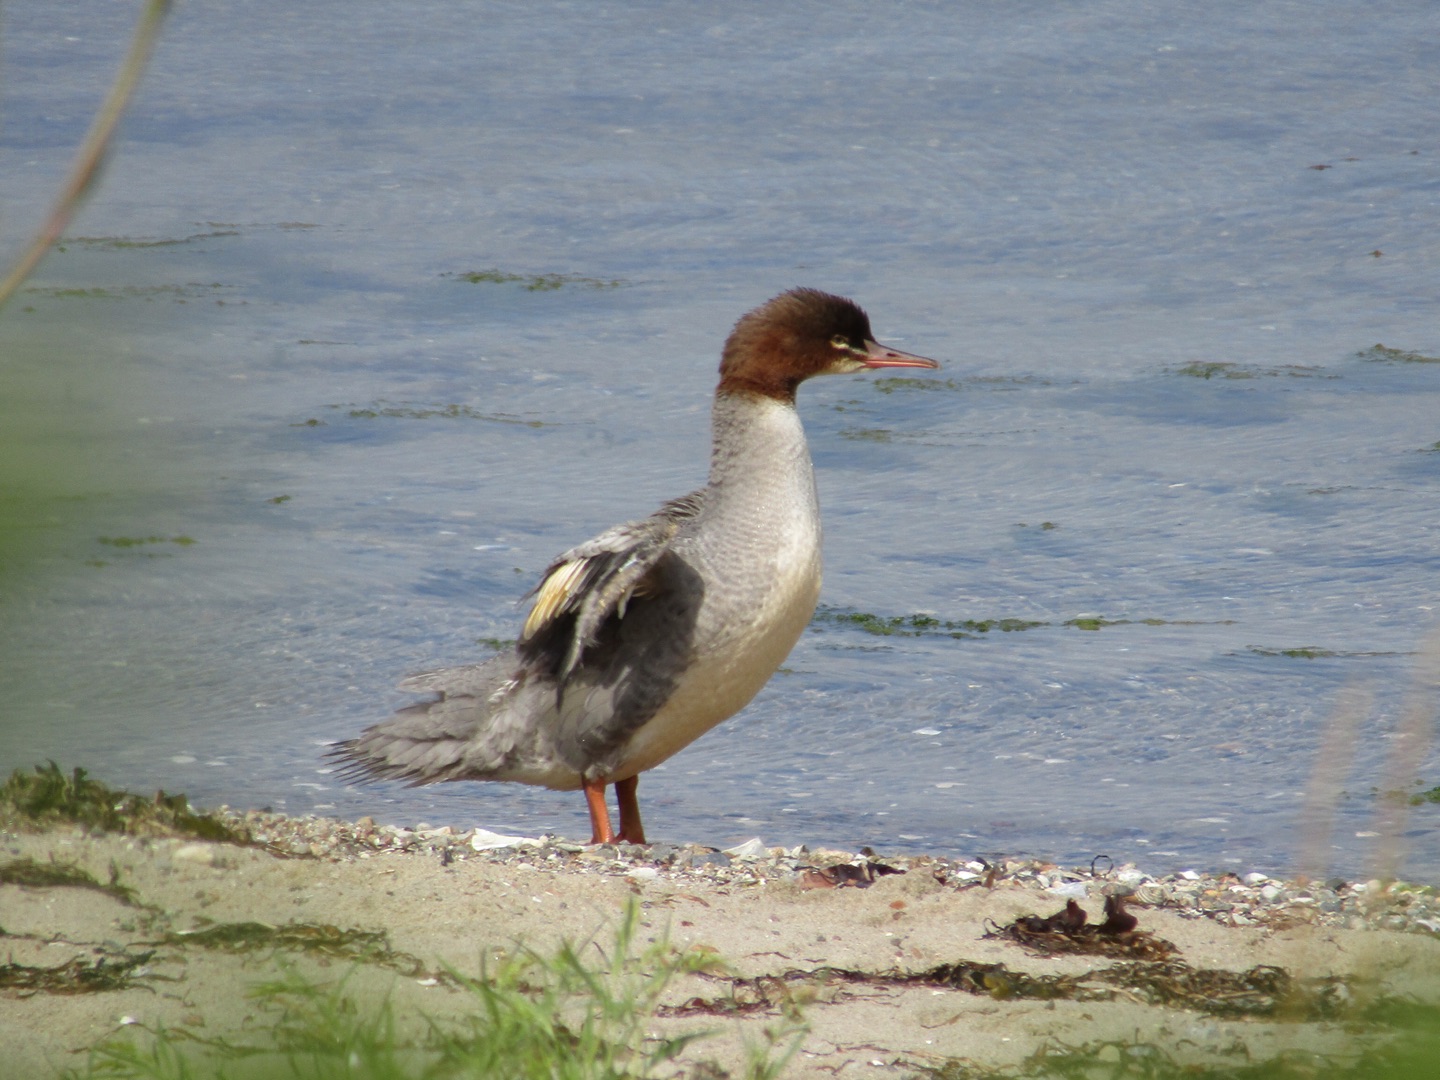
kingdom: Animalia
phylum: Chordata
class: Aves
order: Anseriformes
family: Anatidae
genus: Mergus
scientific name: Mergus merganser
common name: Stor skallesluger
